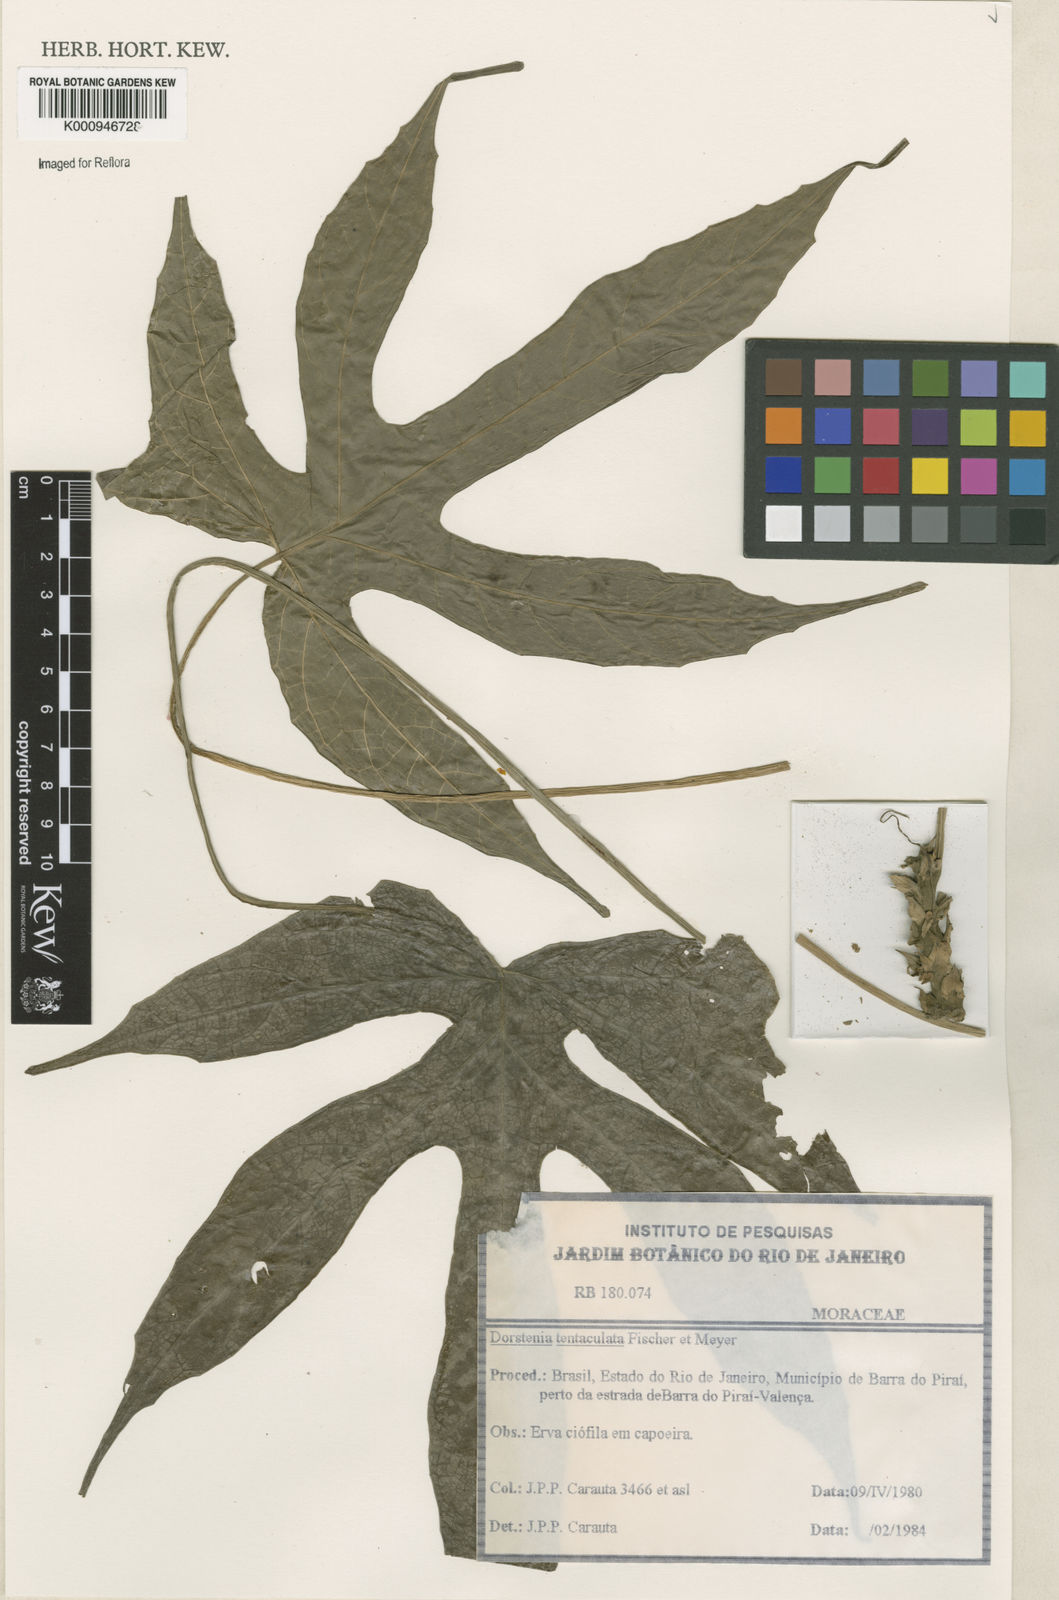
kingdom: Plantae
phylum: Tracheophyta
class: Magnoliopsida
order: Rosales
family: Moraceae
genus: Dorstenia
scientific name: Dorstenia tentaculata
